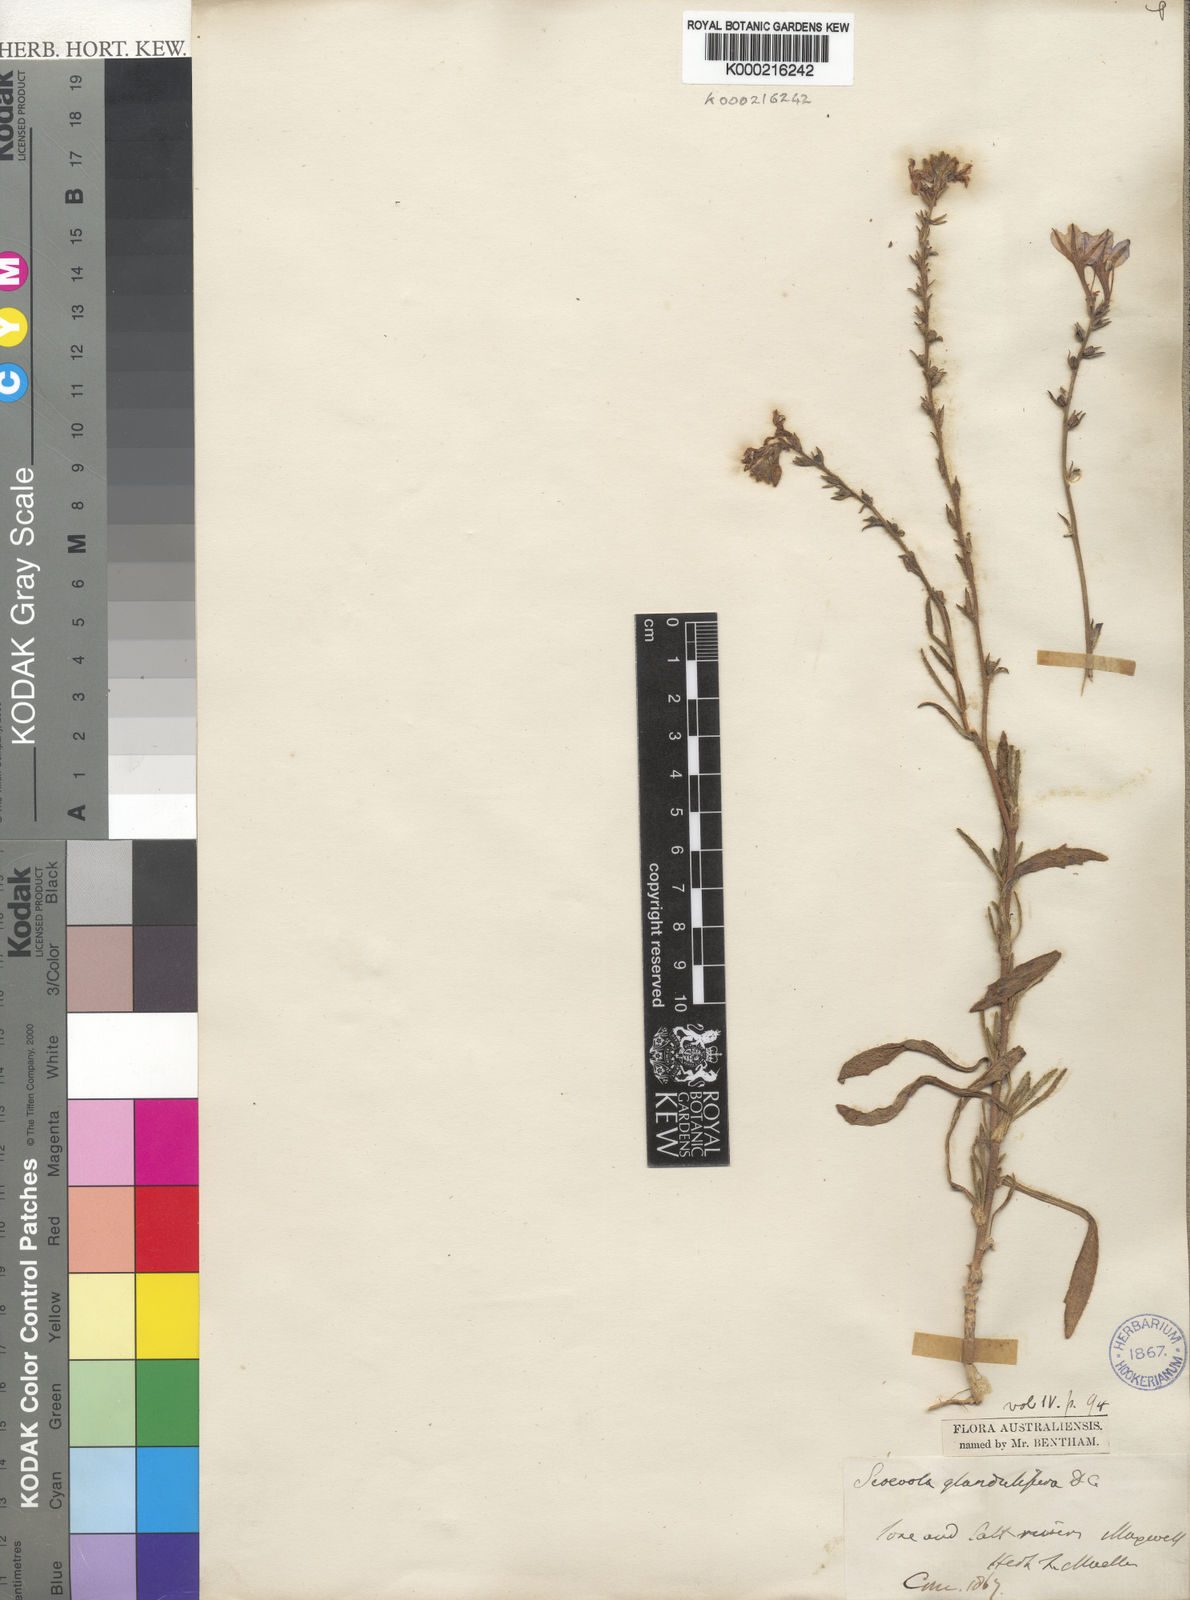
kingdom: Plantae
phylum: Tracheophyta
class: Magnoliopsida
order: Asterales
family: Goodeniaceae
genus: Scaevola
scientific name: Scaevola glandulifera
